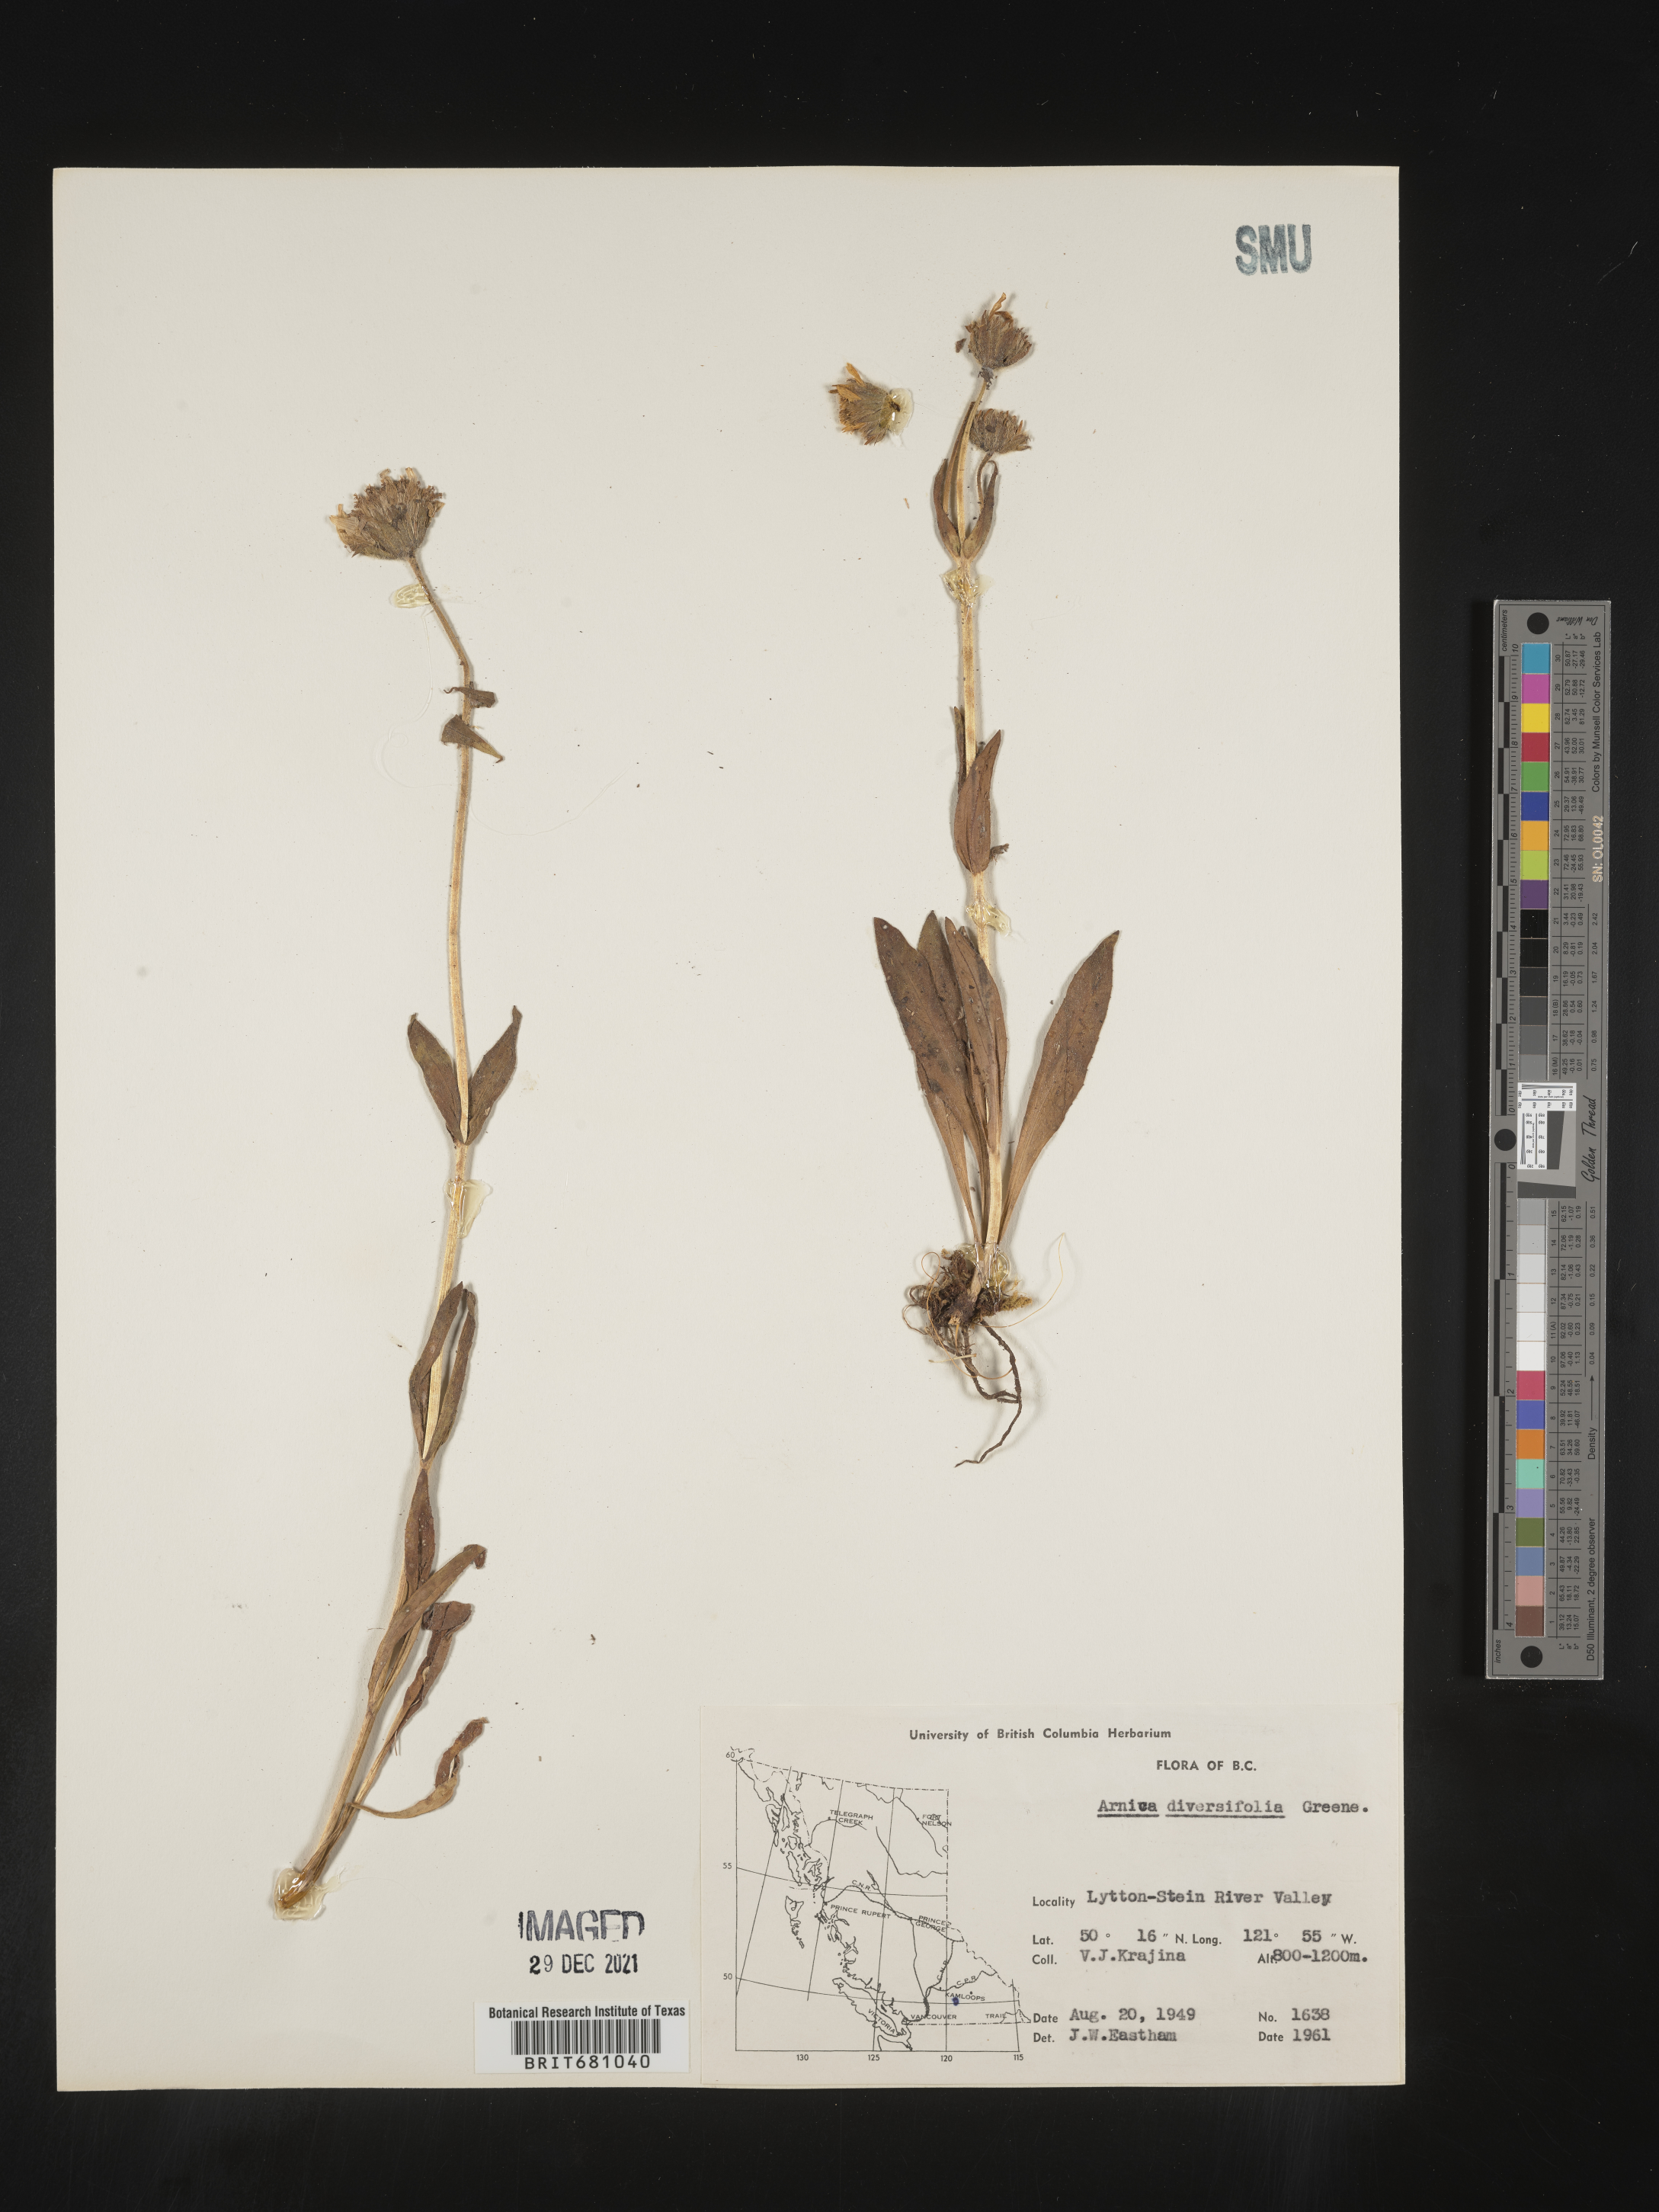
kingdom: Plantae
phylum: Tracheophyta
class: Magnoliopsida
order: Asterales
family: Asteraceae
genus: Arnica
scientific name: Arnica ovata
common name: Diverse arnica
